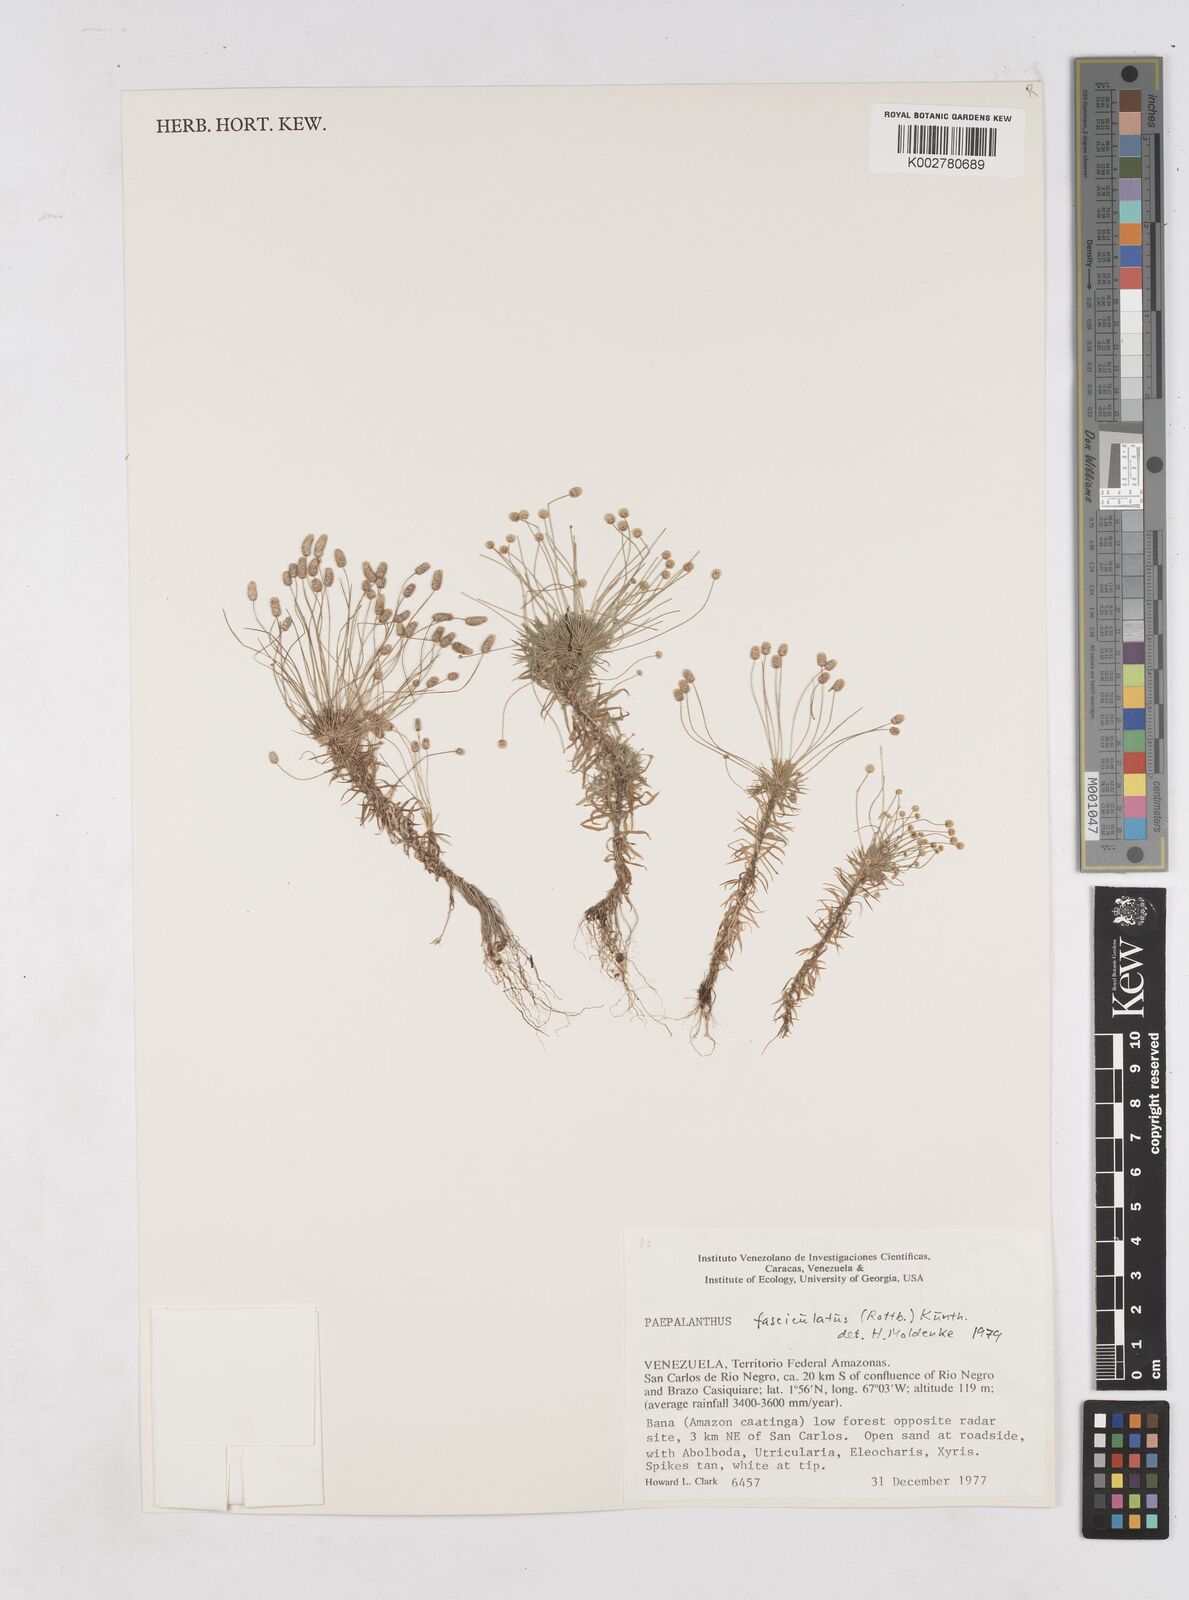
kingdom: Plantae
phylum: Tracheophyta
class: Liliopsida
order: Poales
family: Eriocaulaceae
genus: Paepalanthus
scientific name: Paepalanthus fasciculatus
